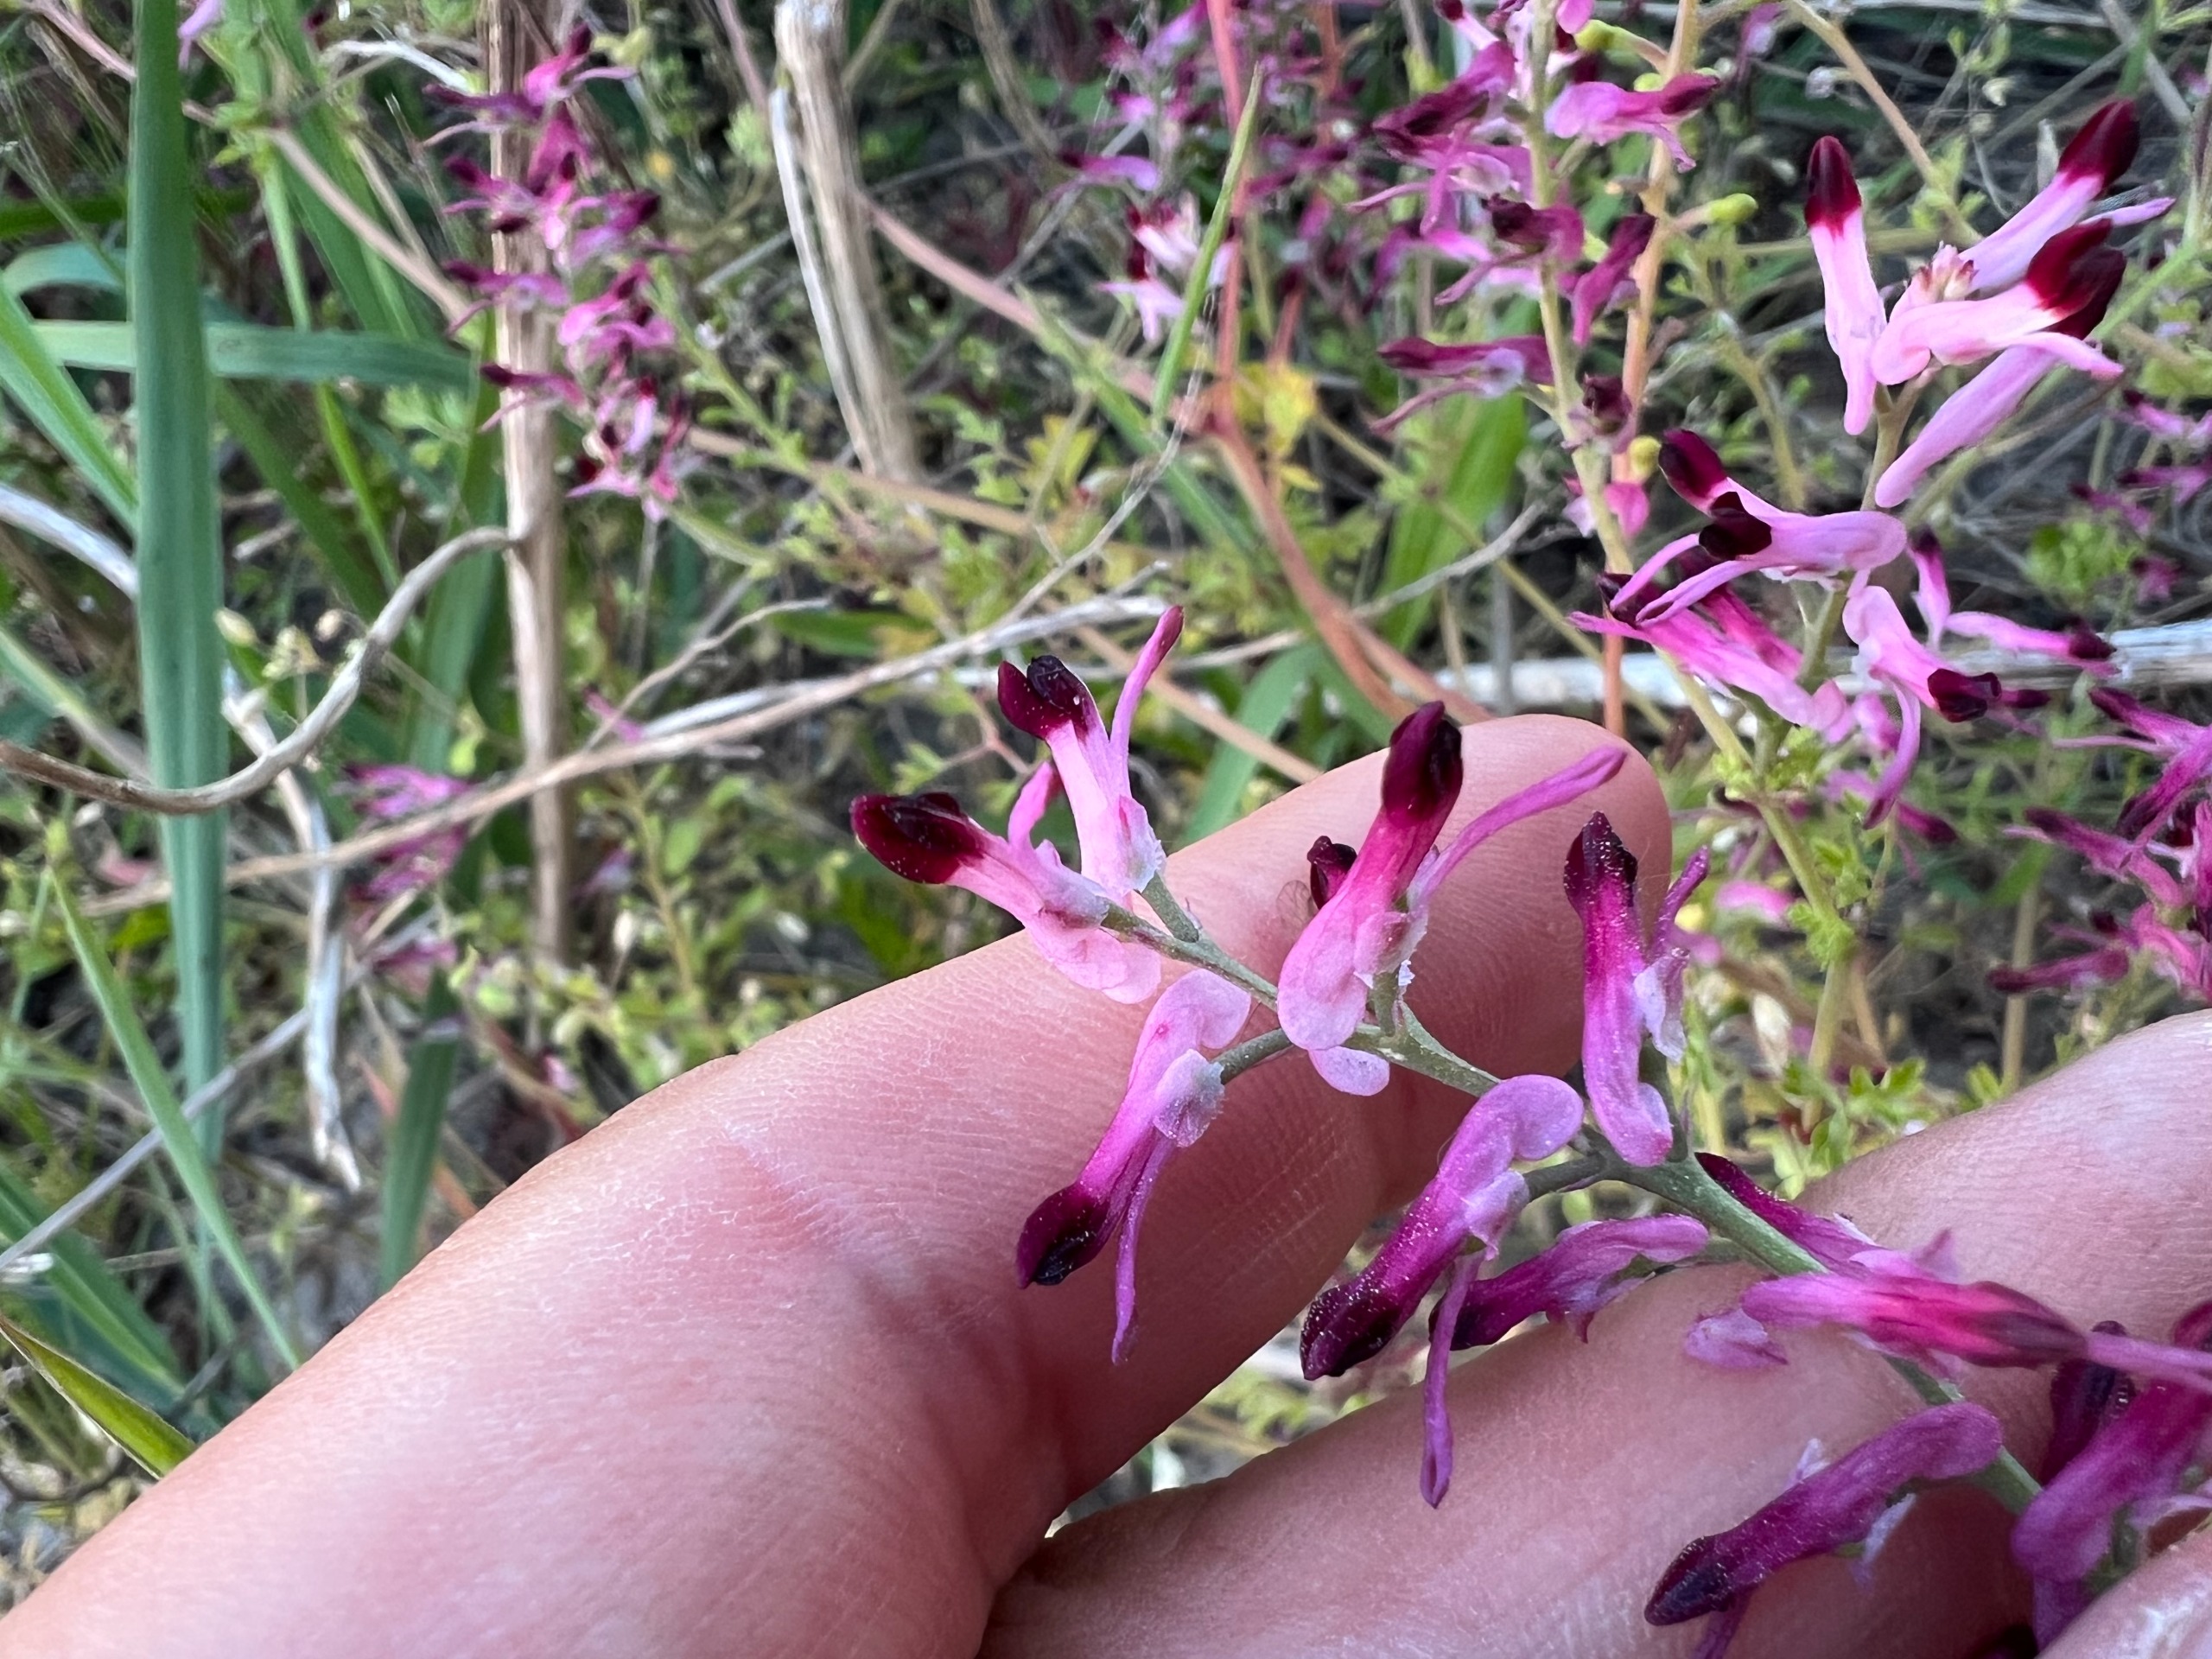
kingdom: Plantae
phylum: Tracheophyta
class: Magnoliopsida
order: Ranunculales
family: Papaveraceae
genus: Fumaria
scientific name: Fumaria muralis
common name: Mur-jordrøg
